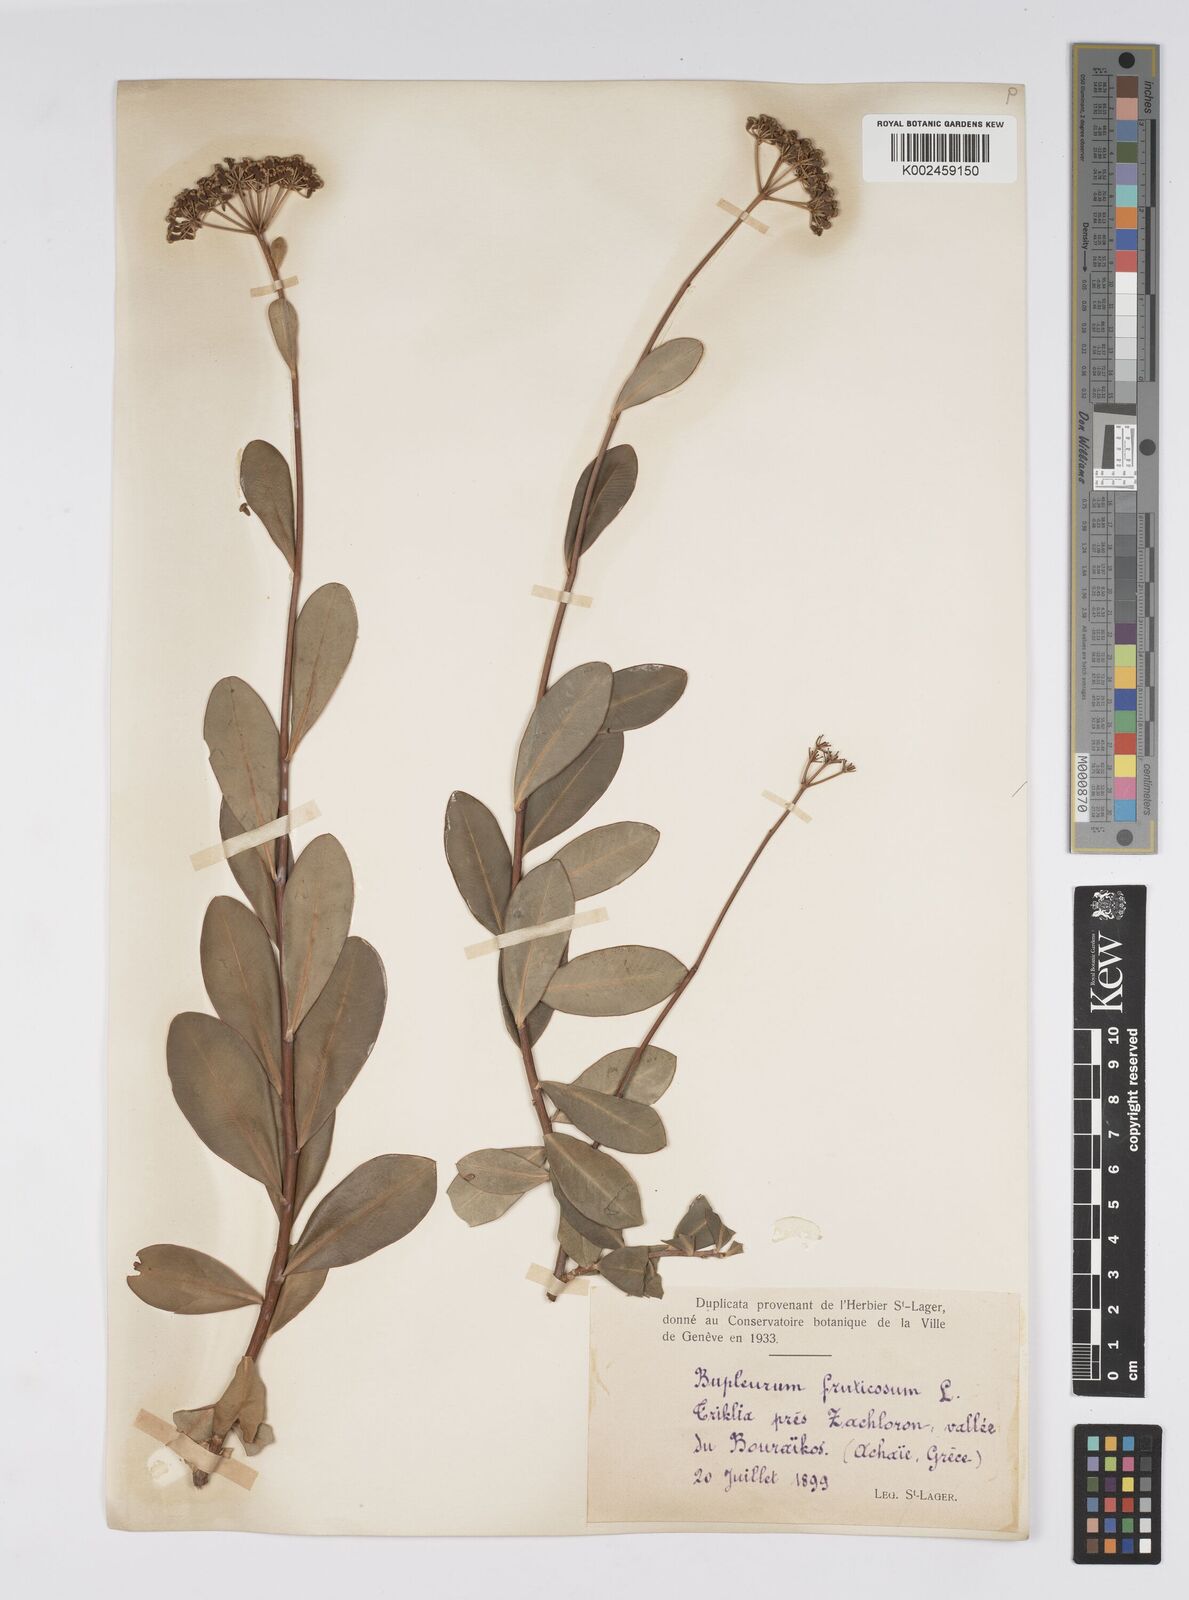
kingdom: Plantae
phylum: Tracheophyta
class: Magnoliopsida
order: Apiales
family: Apiaceae
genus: Bupleurum
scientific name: Bupleurum fruticosum
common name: Shrubby hare's-ear
